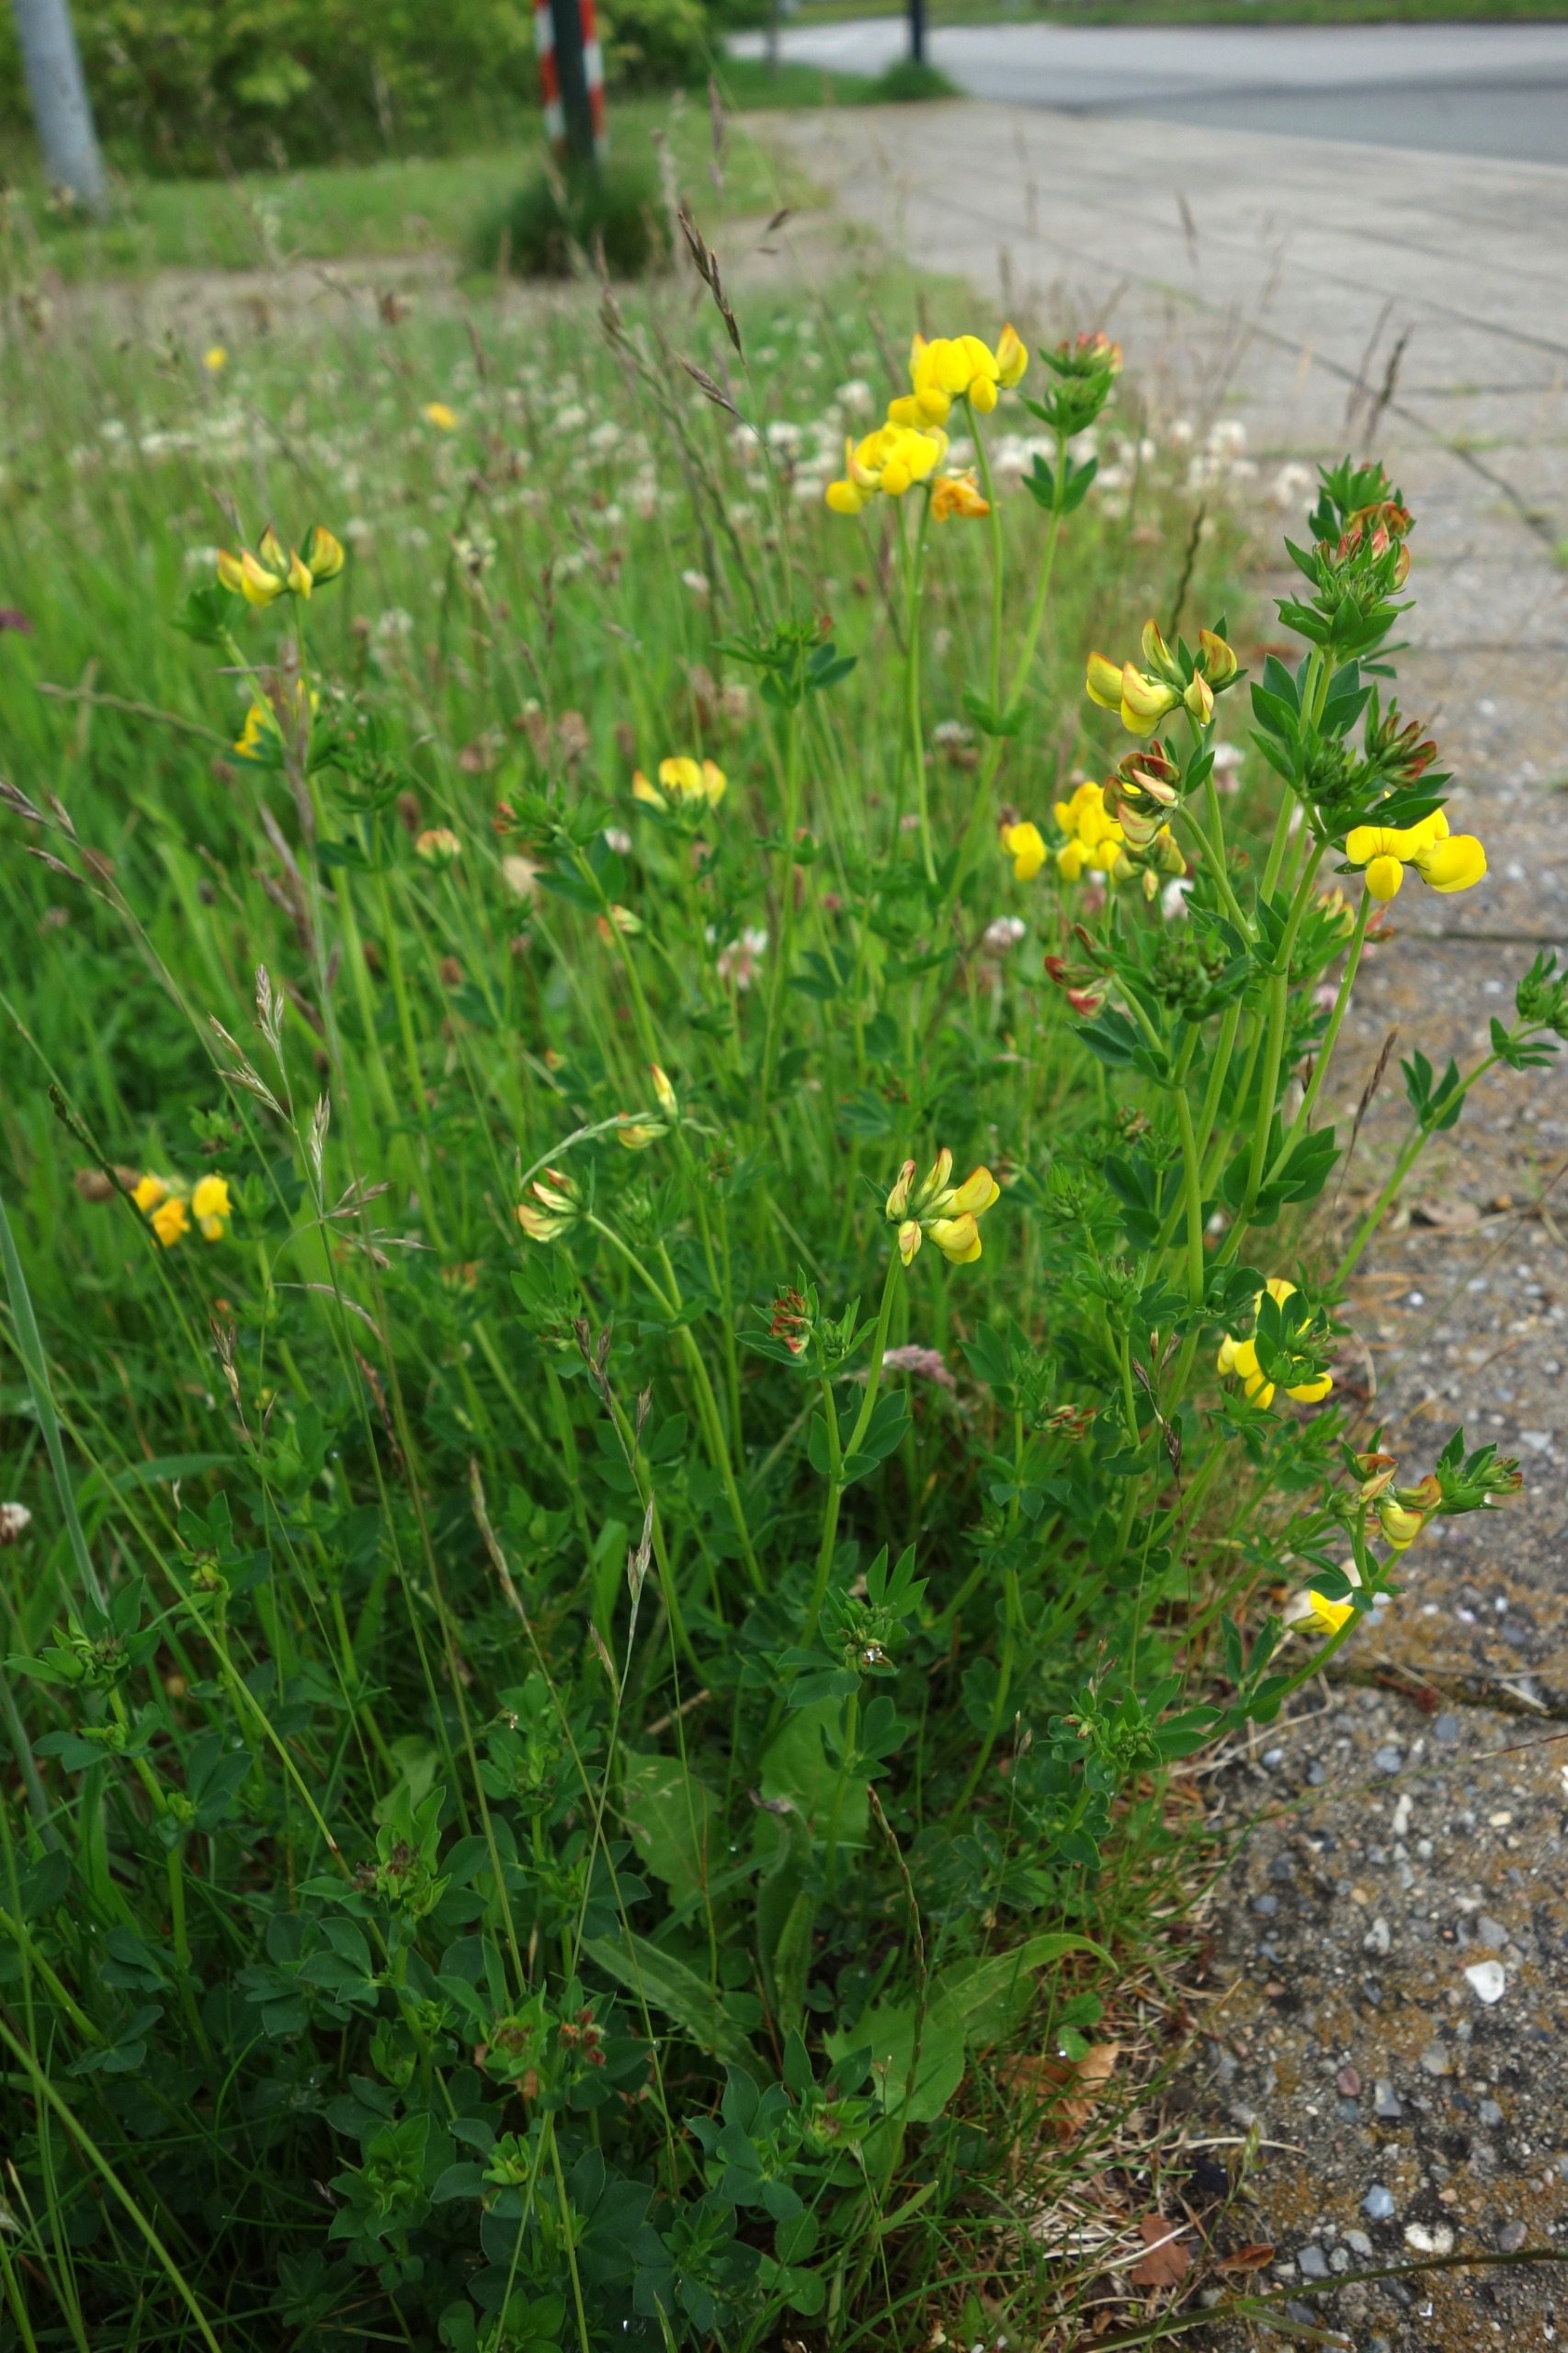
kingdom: Plantae
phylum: Tracheophyta
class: Magnoliopsida
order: Fabales
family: Fabaceae
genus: Lotus
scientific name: Lotus corniculatus
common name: Almindelig kællingetand
